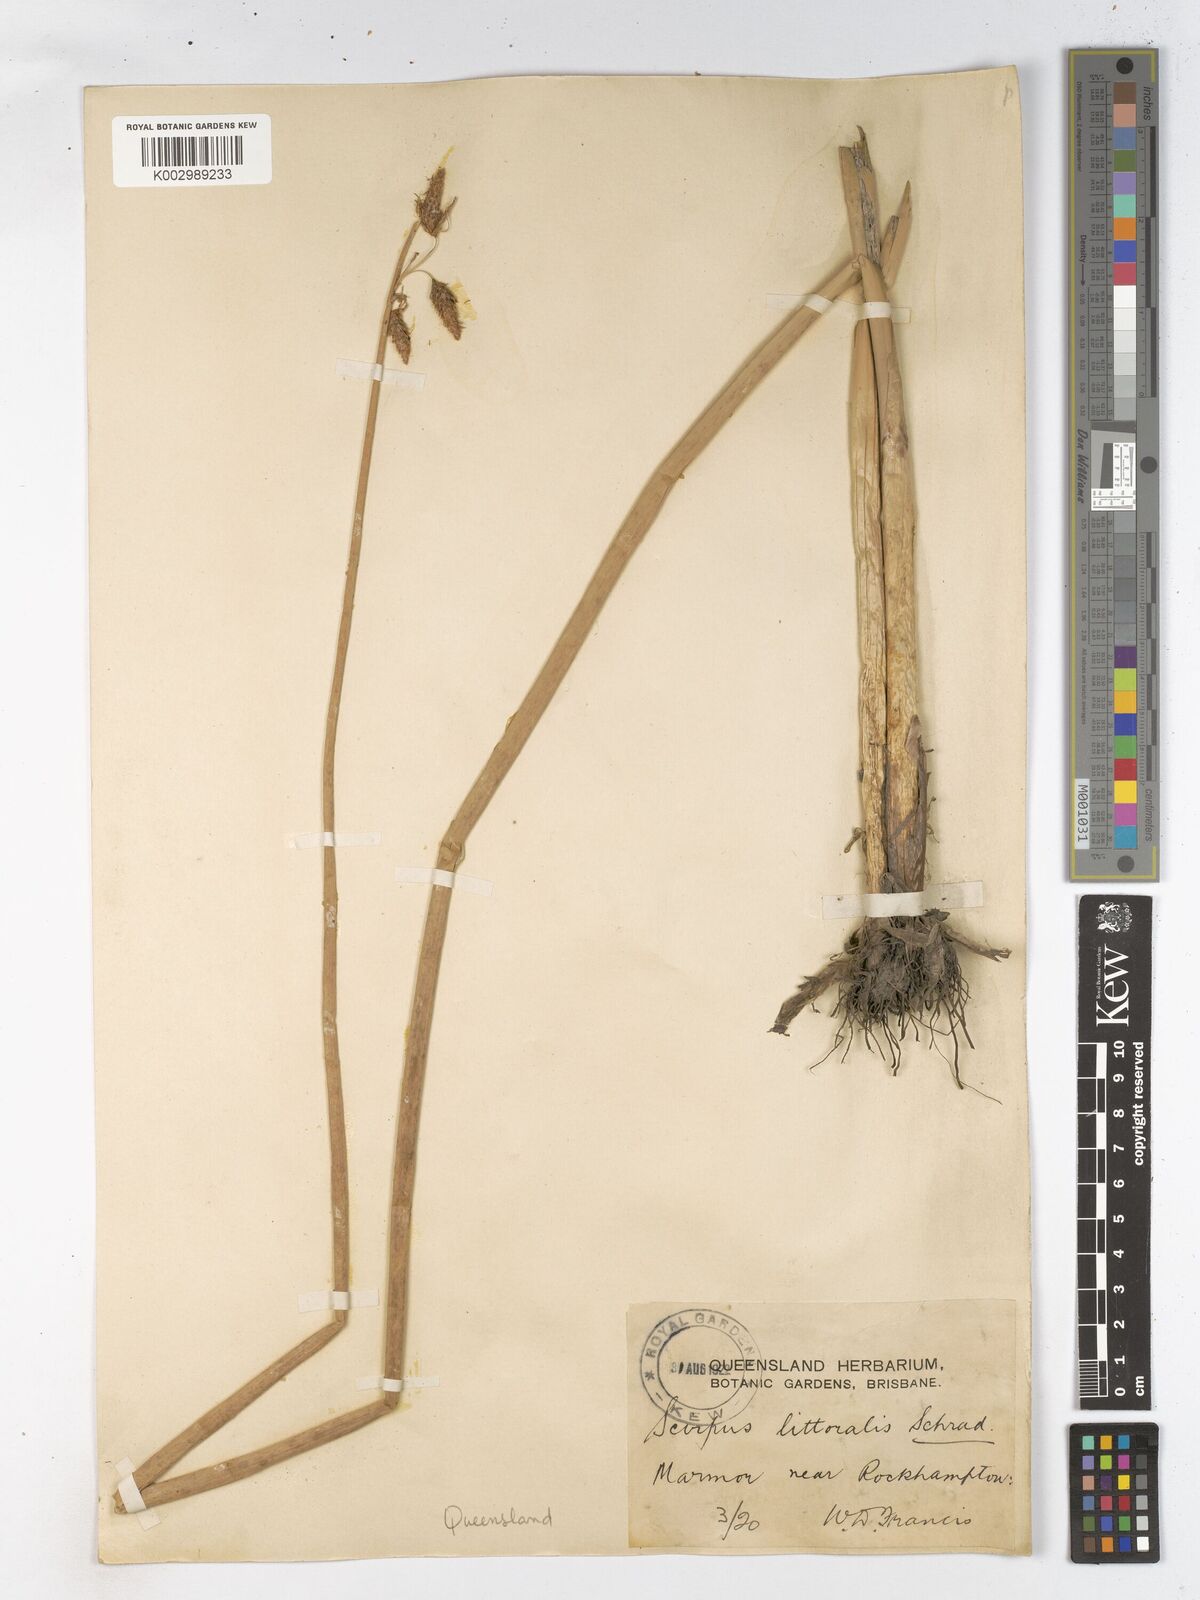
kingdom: Plantae
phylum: Tracheophyta
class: Liliopsida
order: Poales
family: Cyperaceae
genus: Schoenoplectus
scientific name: Schoenoplectus litoralis
